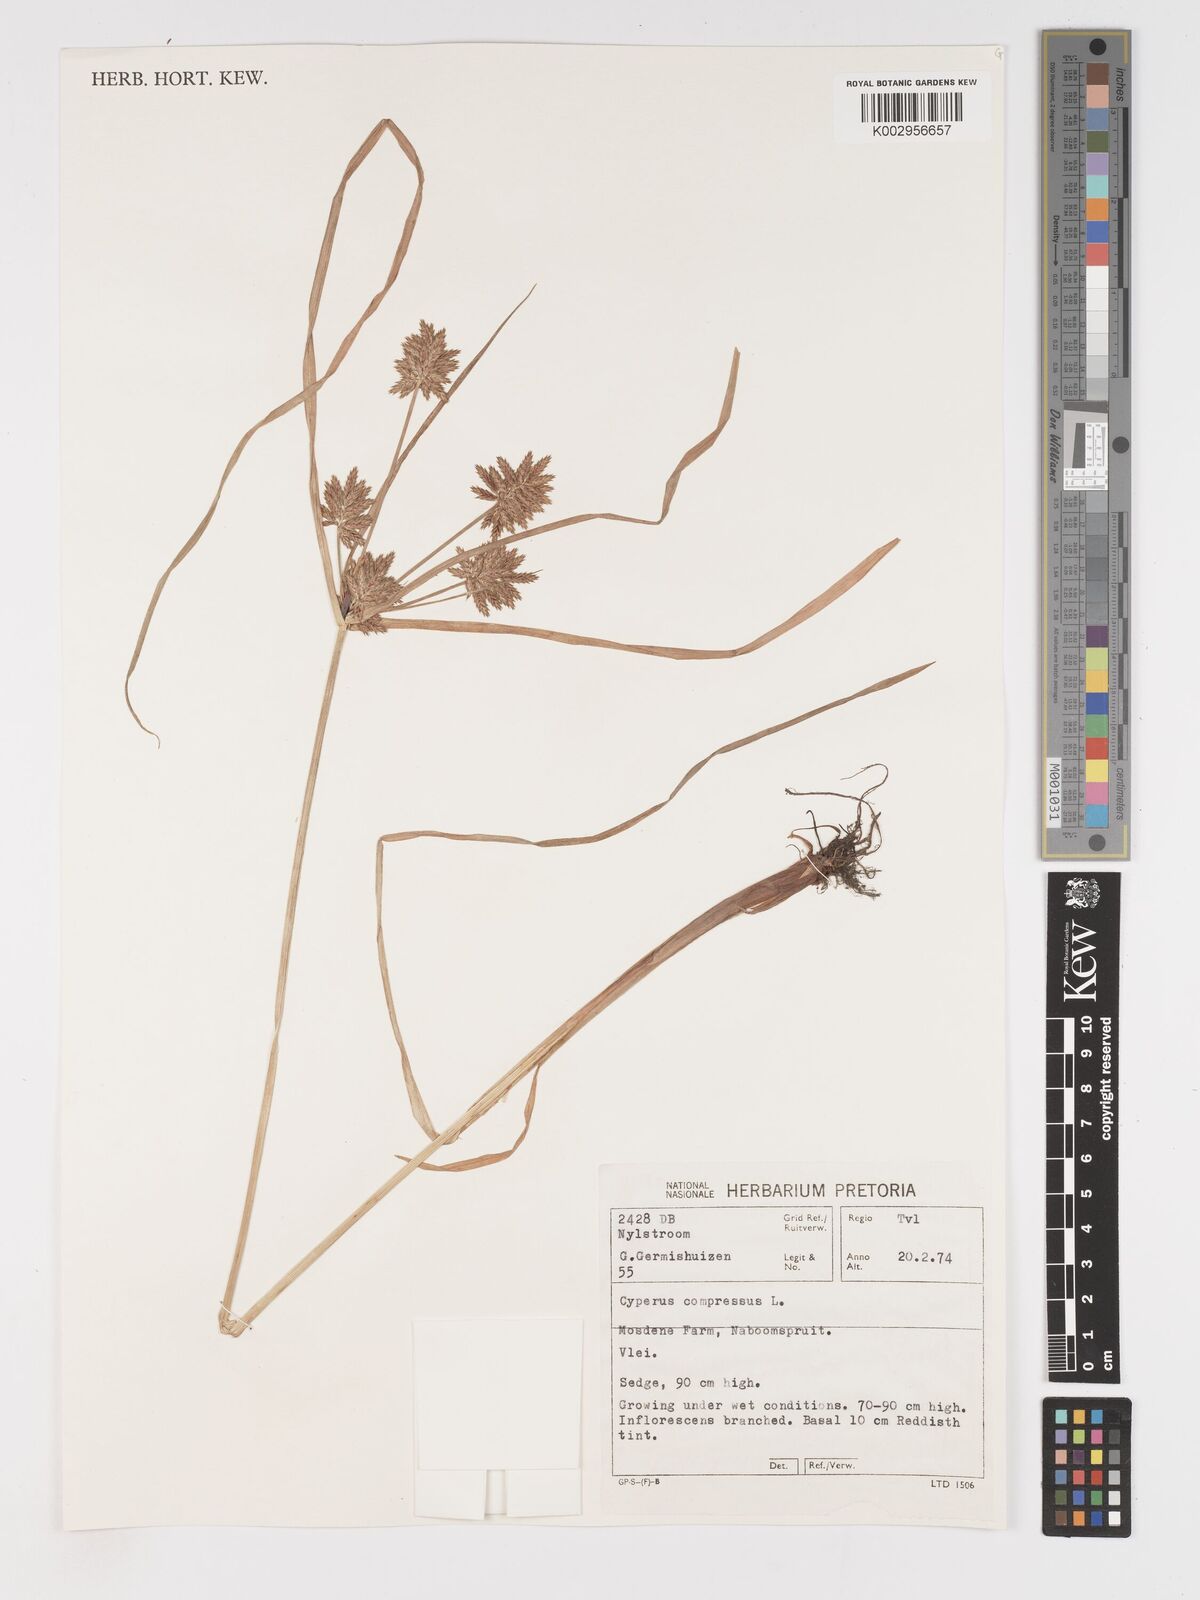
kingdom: Plantae
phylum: Tracheophyta
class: Liliopsida
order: Poales
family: Cyperaceae
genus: Cyperus
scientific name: Cyperus compressus
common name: Poorland flatsedge
